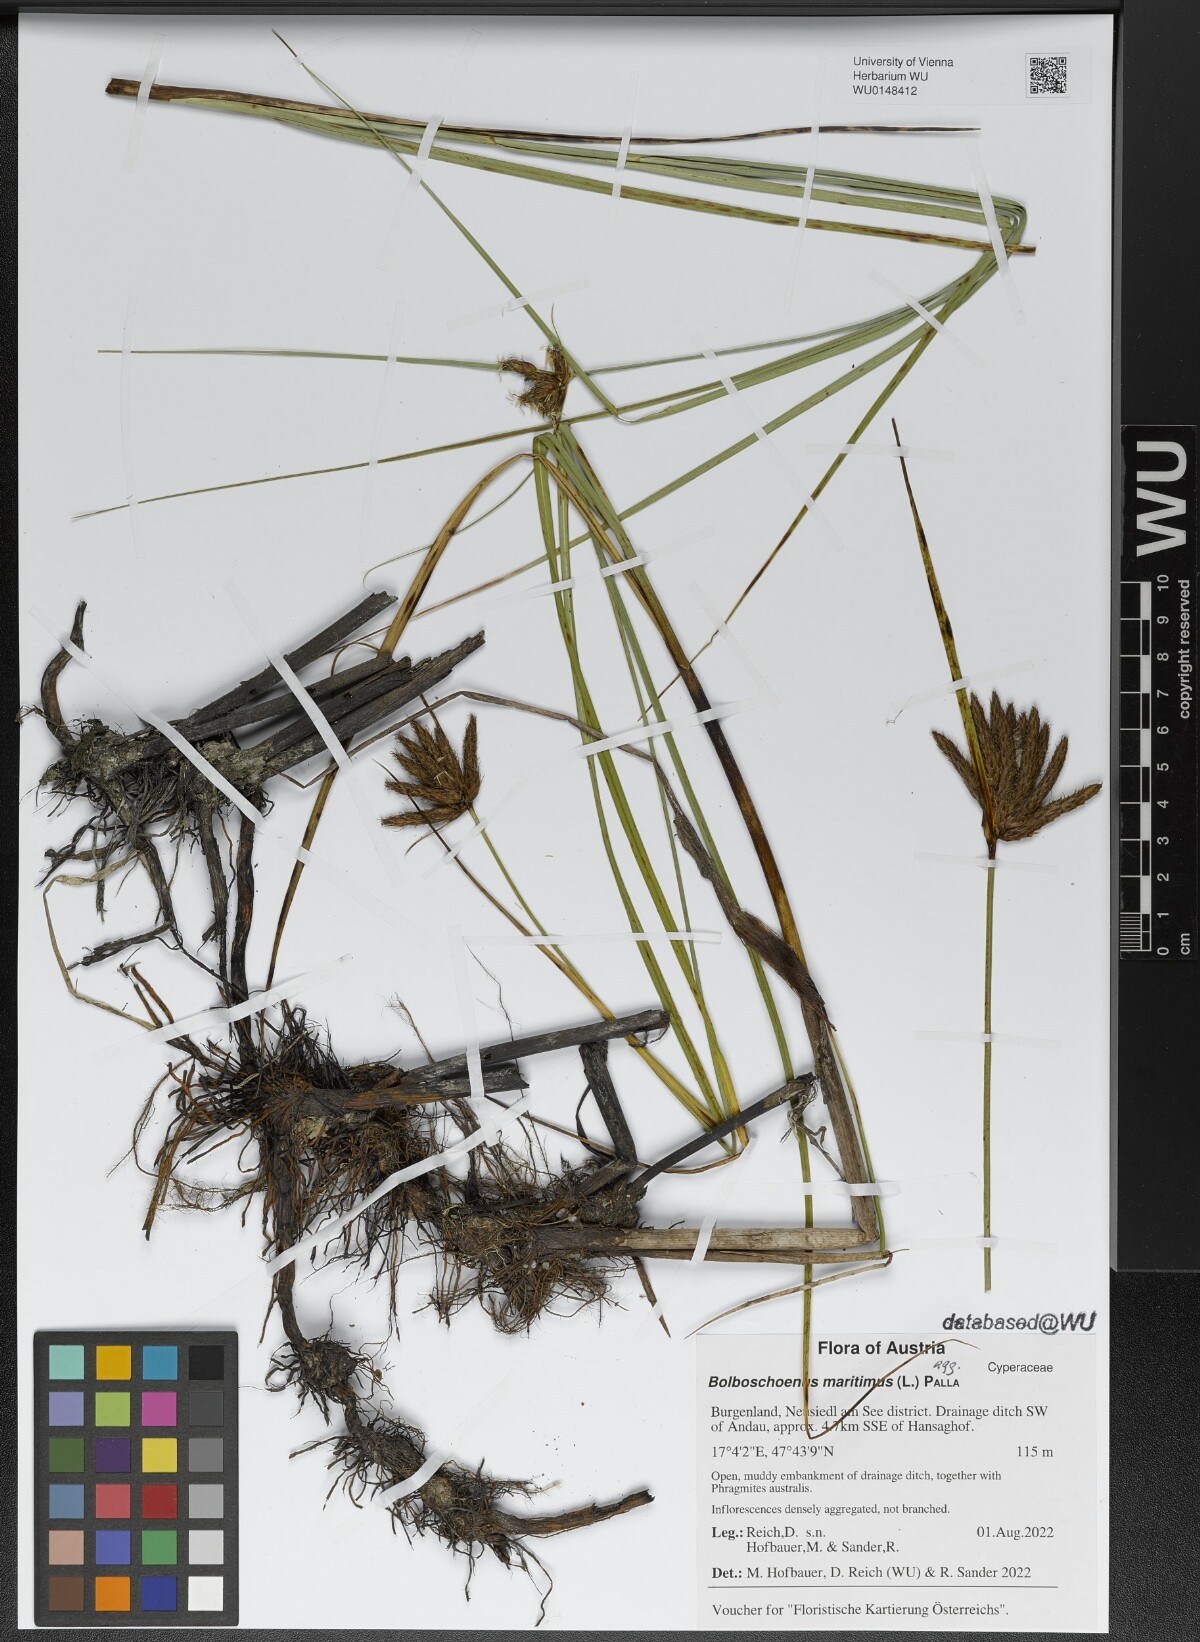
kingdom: Plantae
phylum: Tracheophyta
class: Liliopsida
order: Poales
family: Cyperaceae
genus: Bolboschoenus
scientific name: Bolboschoenus maritimus
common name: Sea club-rush
